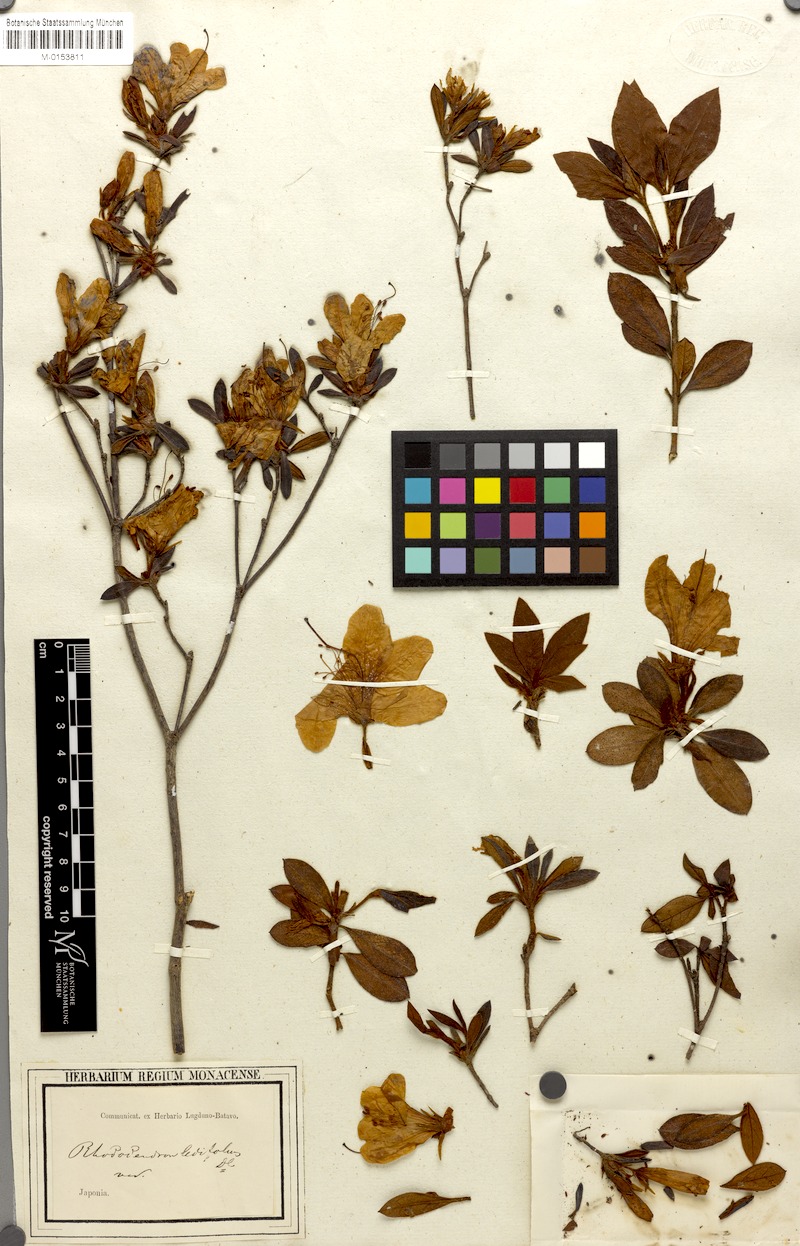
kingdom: Plantae
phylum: Tracheophyta
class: Magnoliopsida
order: Ericales
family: Ericaceae
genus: Rhododendron
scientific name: Rhododendron mucronatum
